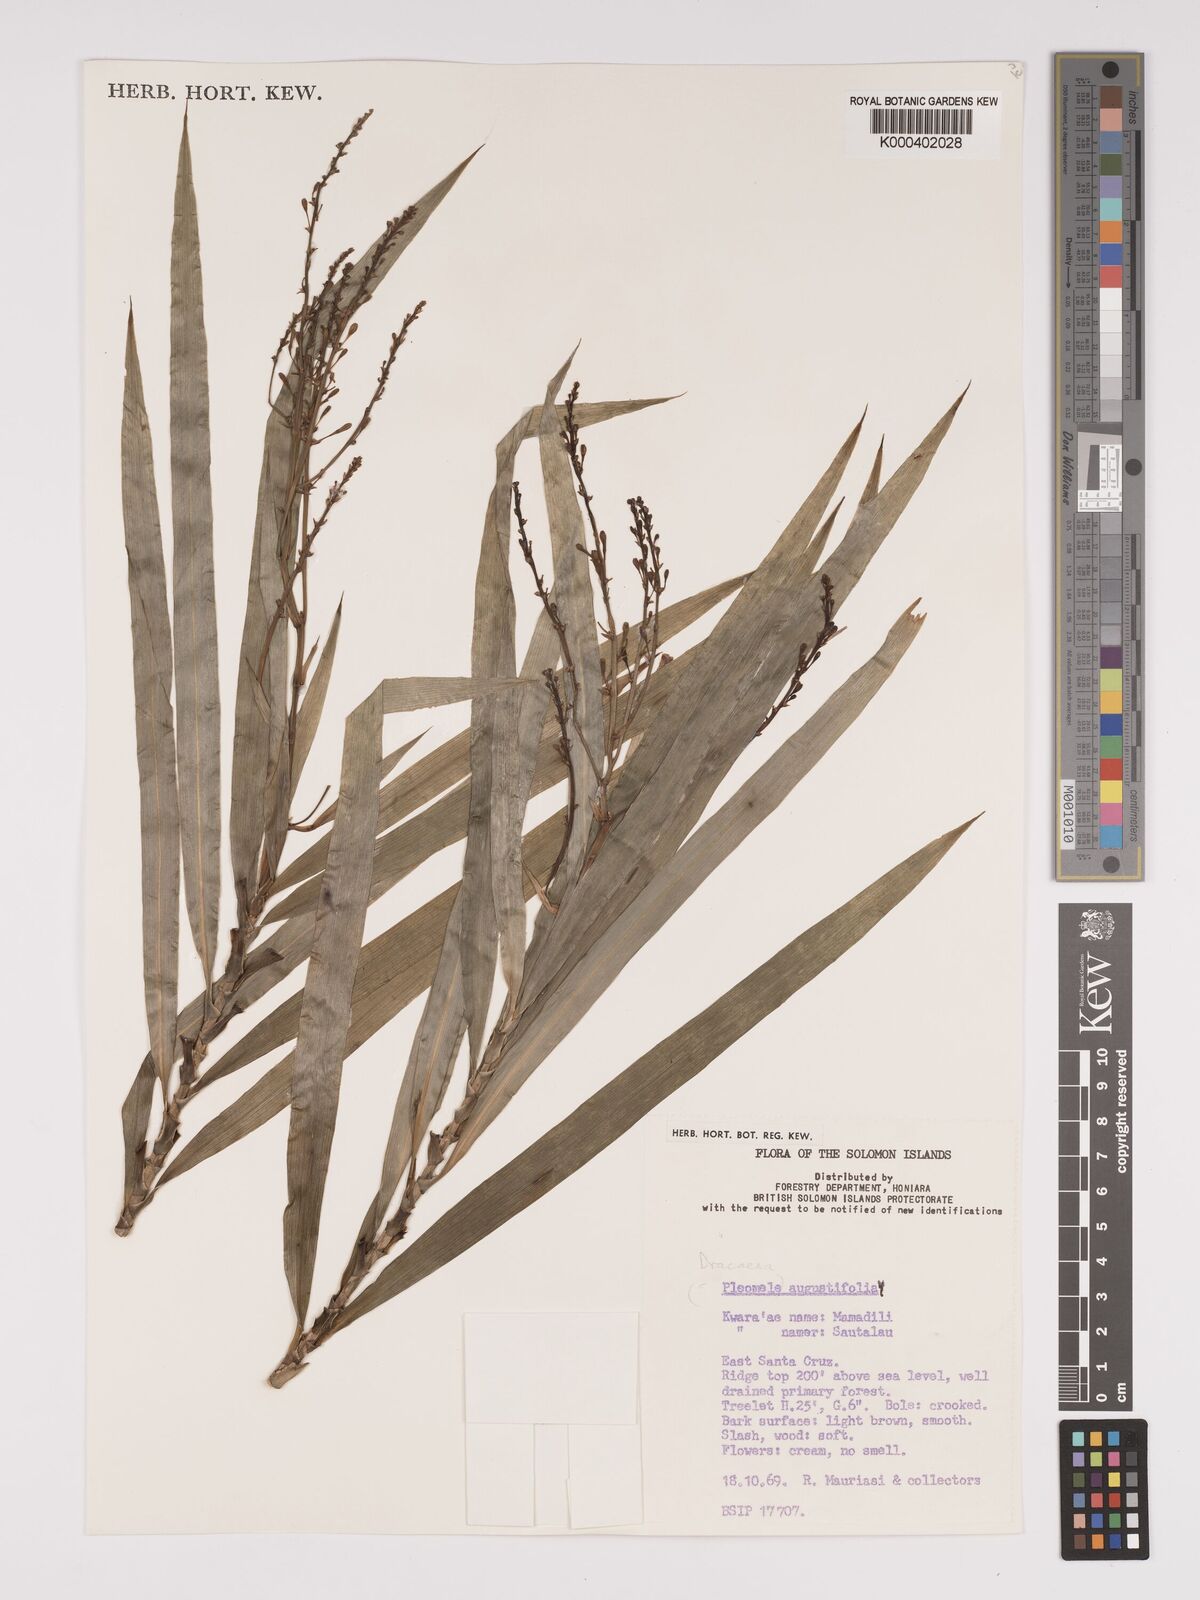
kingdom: Plantae
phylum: Tracheophyta
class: Liliopsida
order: Asparagales
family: Asparagaceae
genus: Dracaena
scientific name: Dracaena angustifolia
